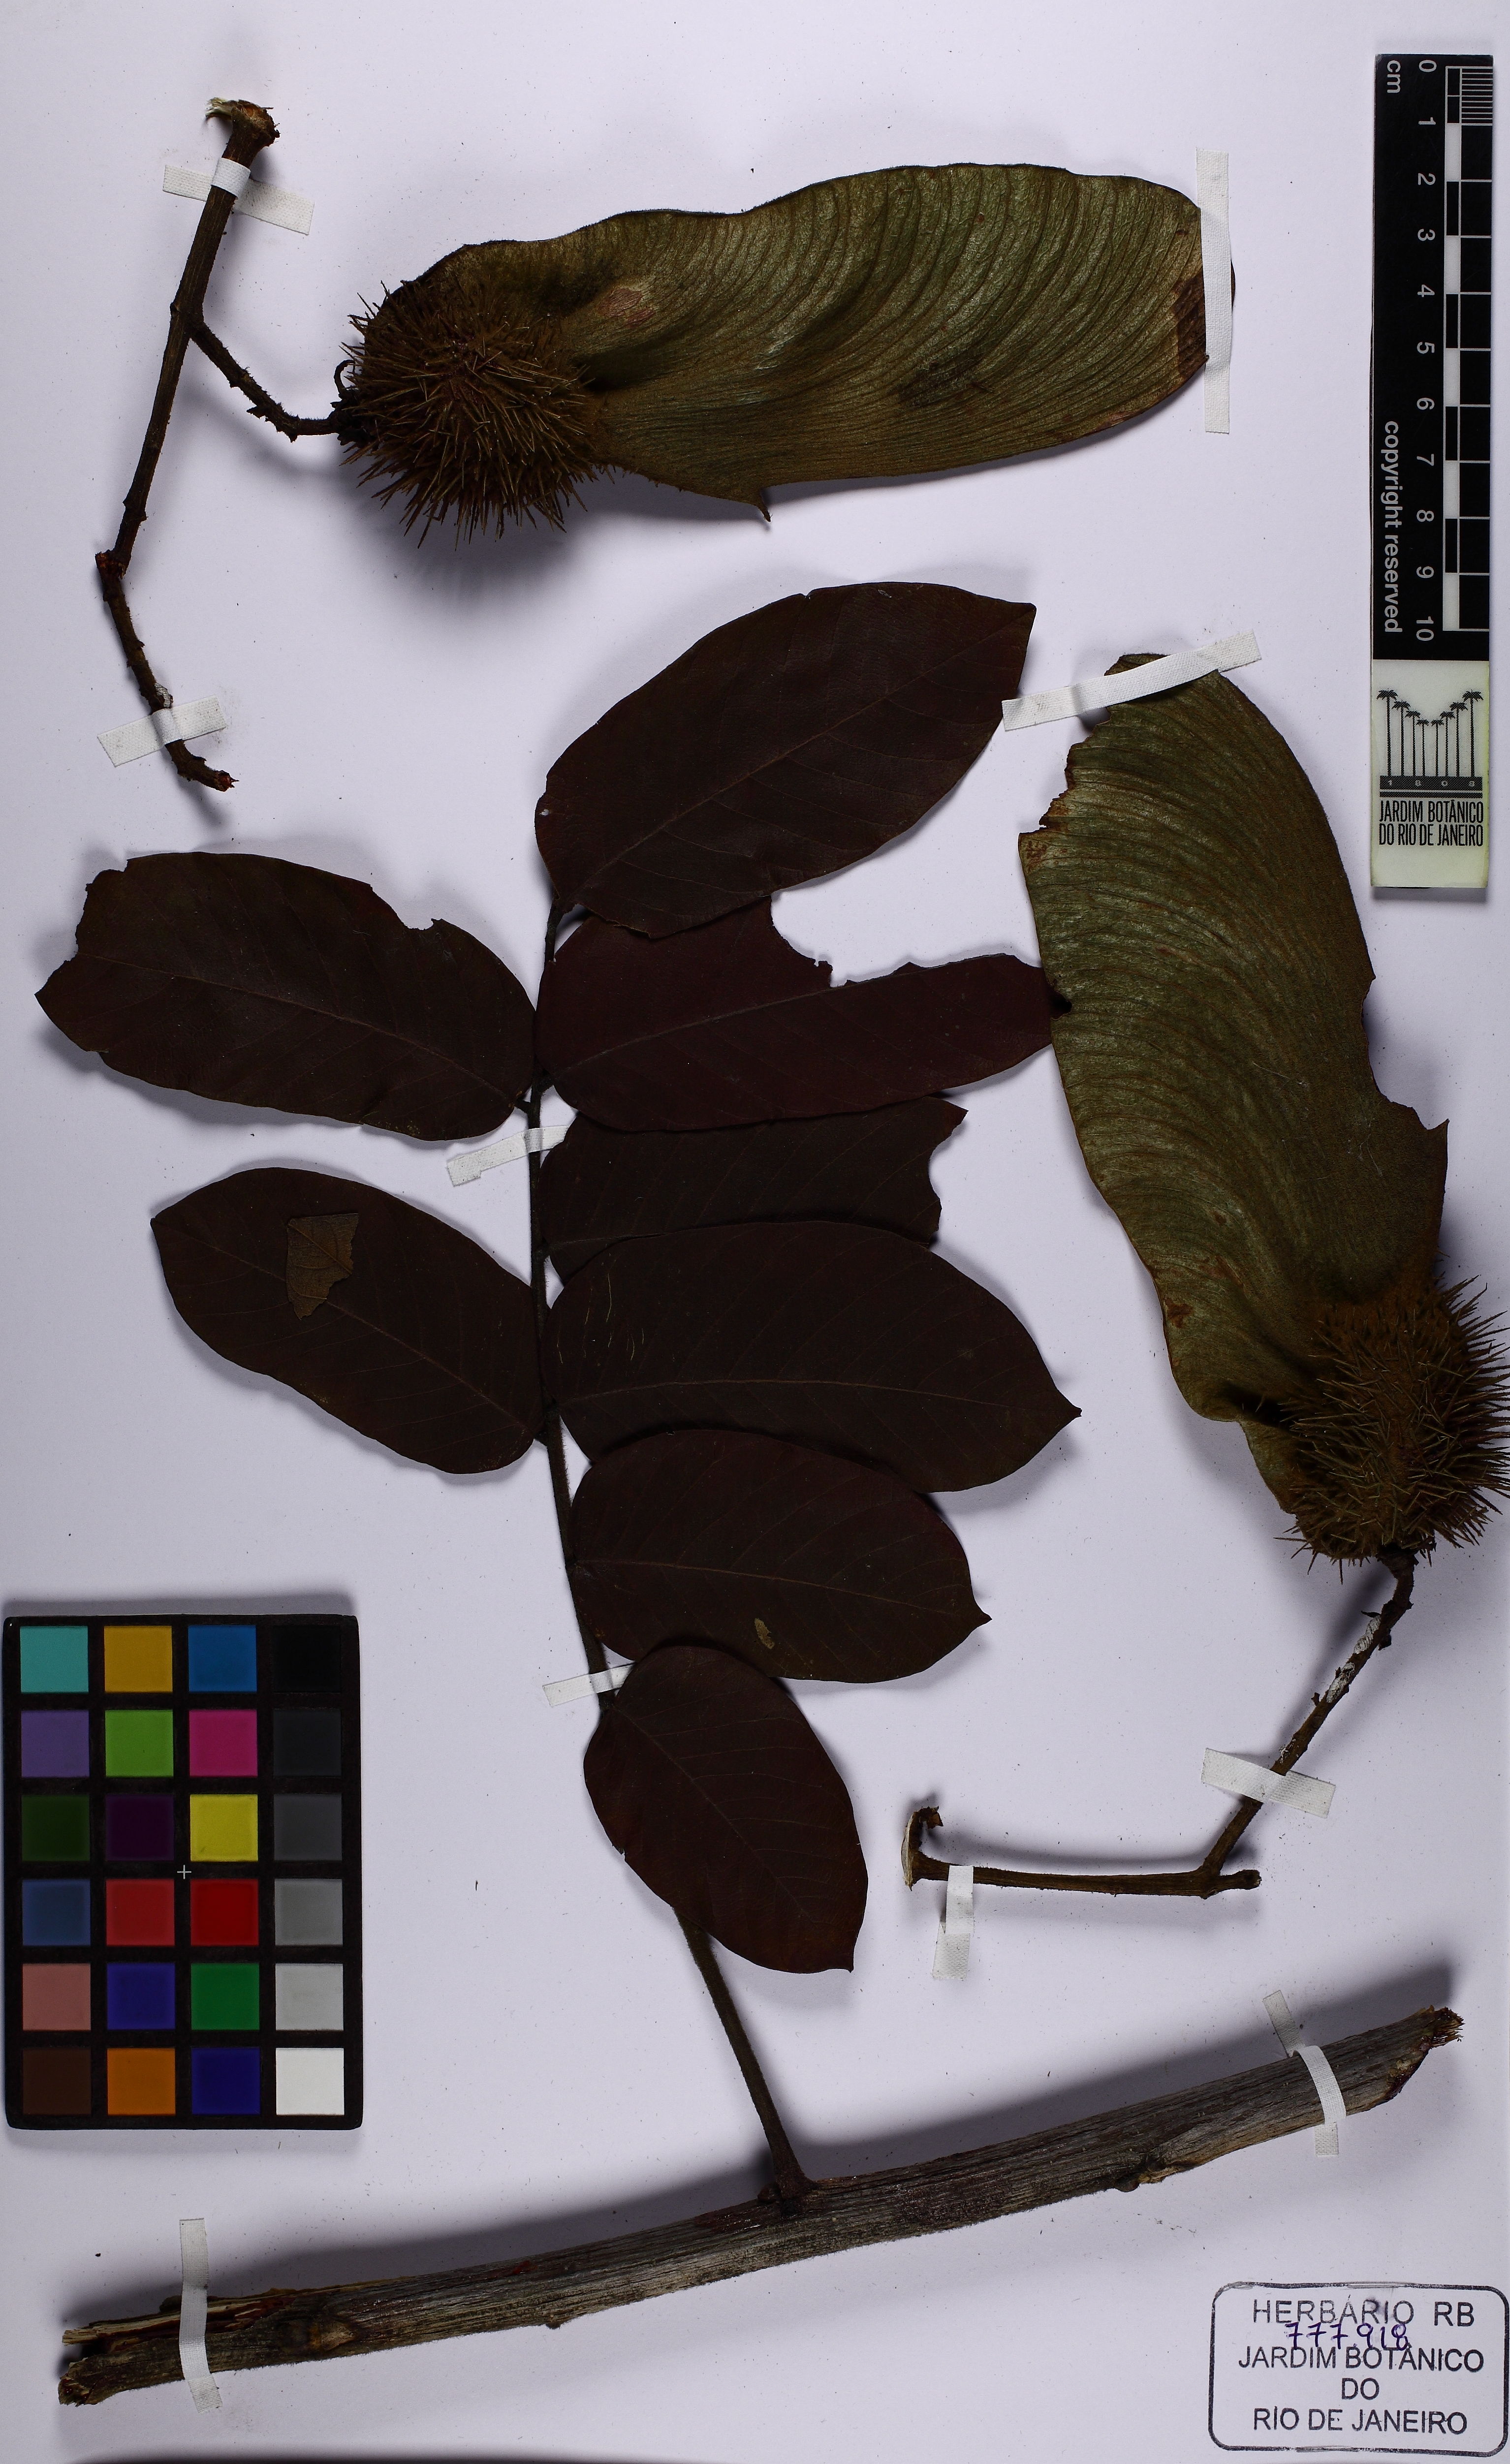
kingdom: Plantae
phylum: Tracheophyta
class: Magnoliopsida
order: Fabales
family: Fabaceae
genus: Centrolobium
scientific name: Centrolobium tomentosum
